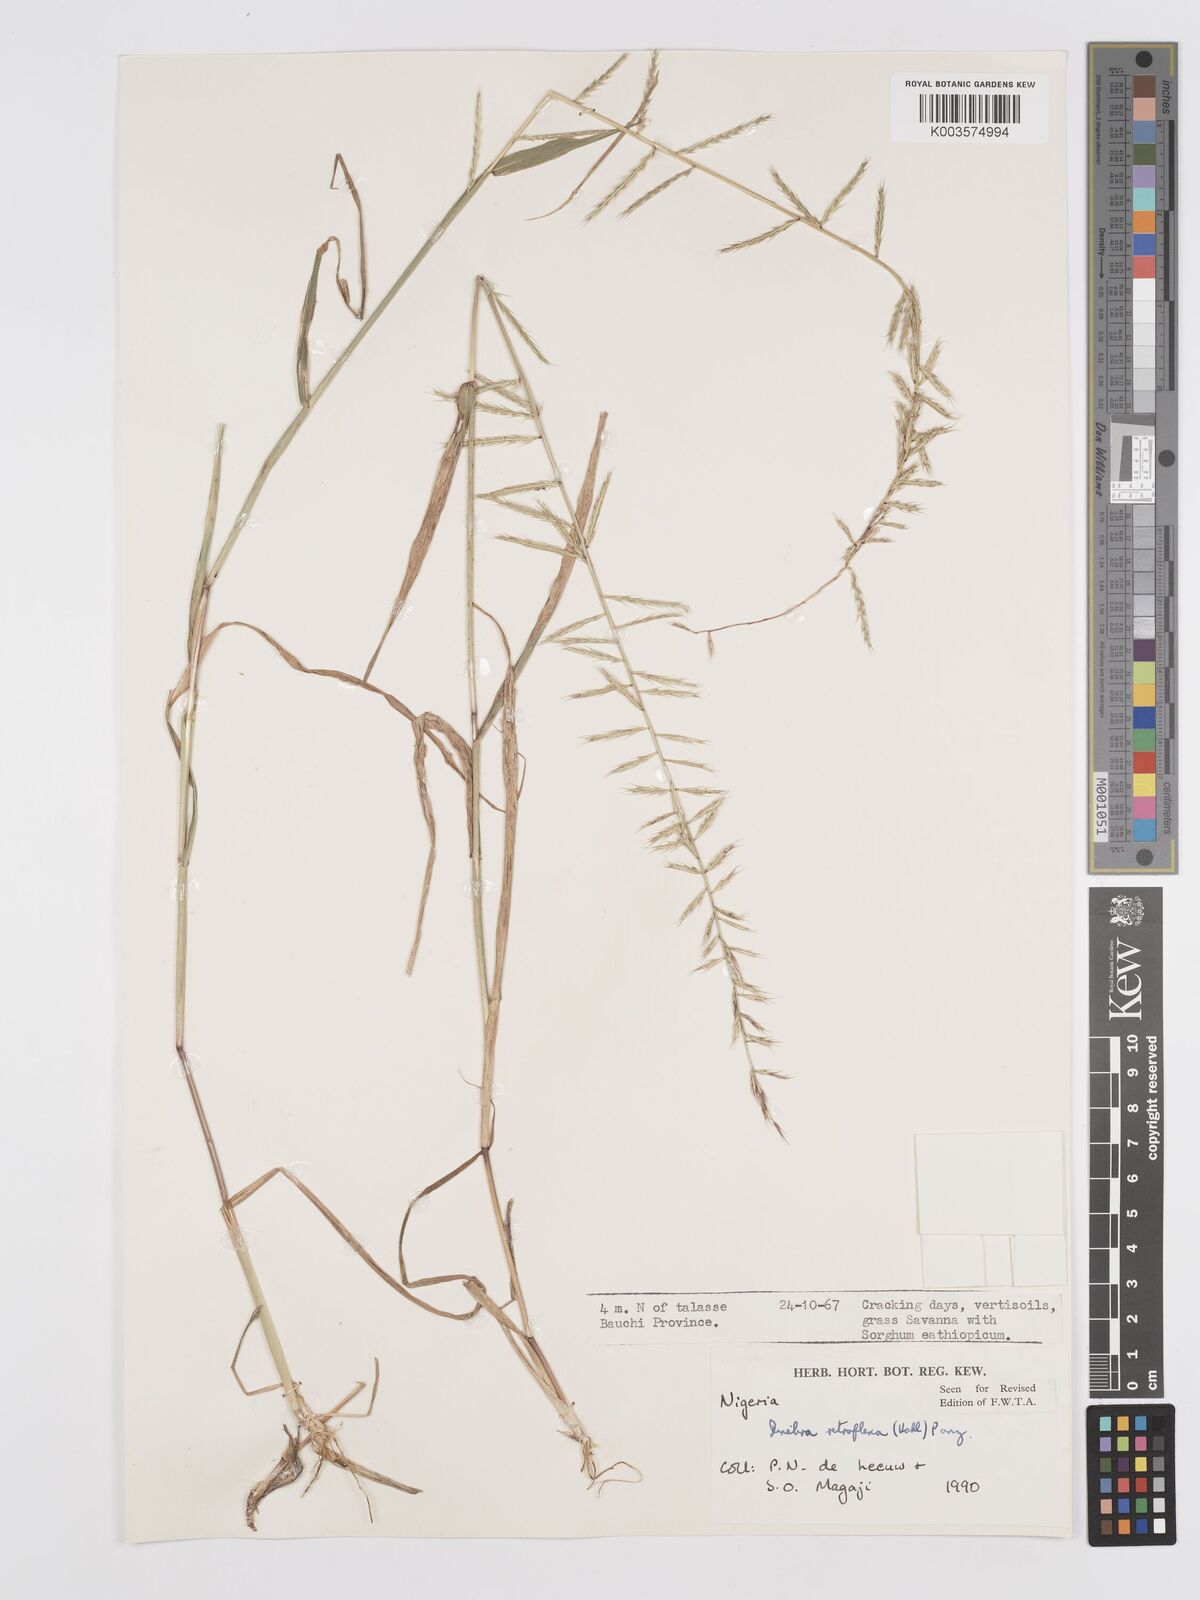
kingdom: Plantae
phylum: Tracheophyta
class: Liliopsida
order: Poales
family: Poaceae
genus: Dinebra
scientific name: Dinebra retroflexa
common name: Viper grass
